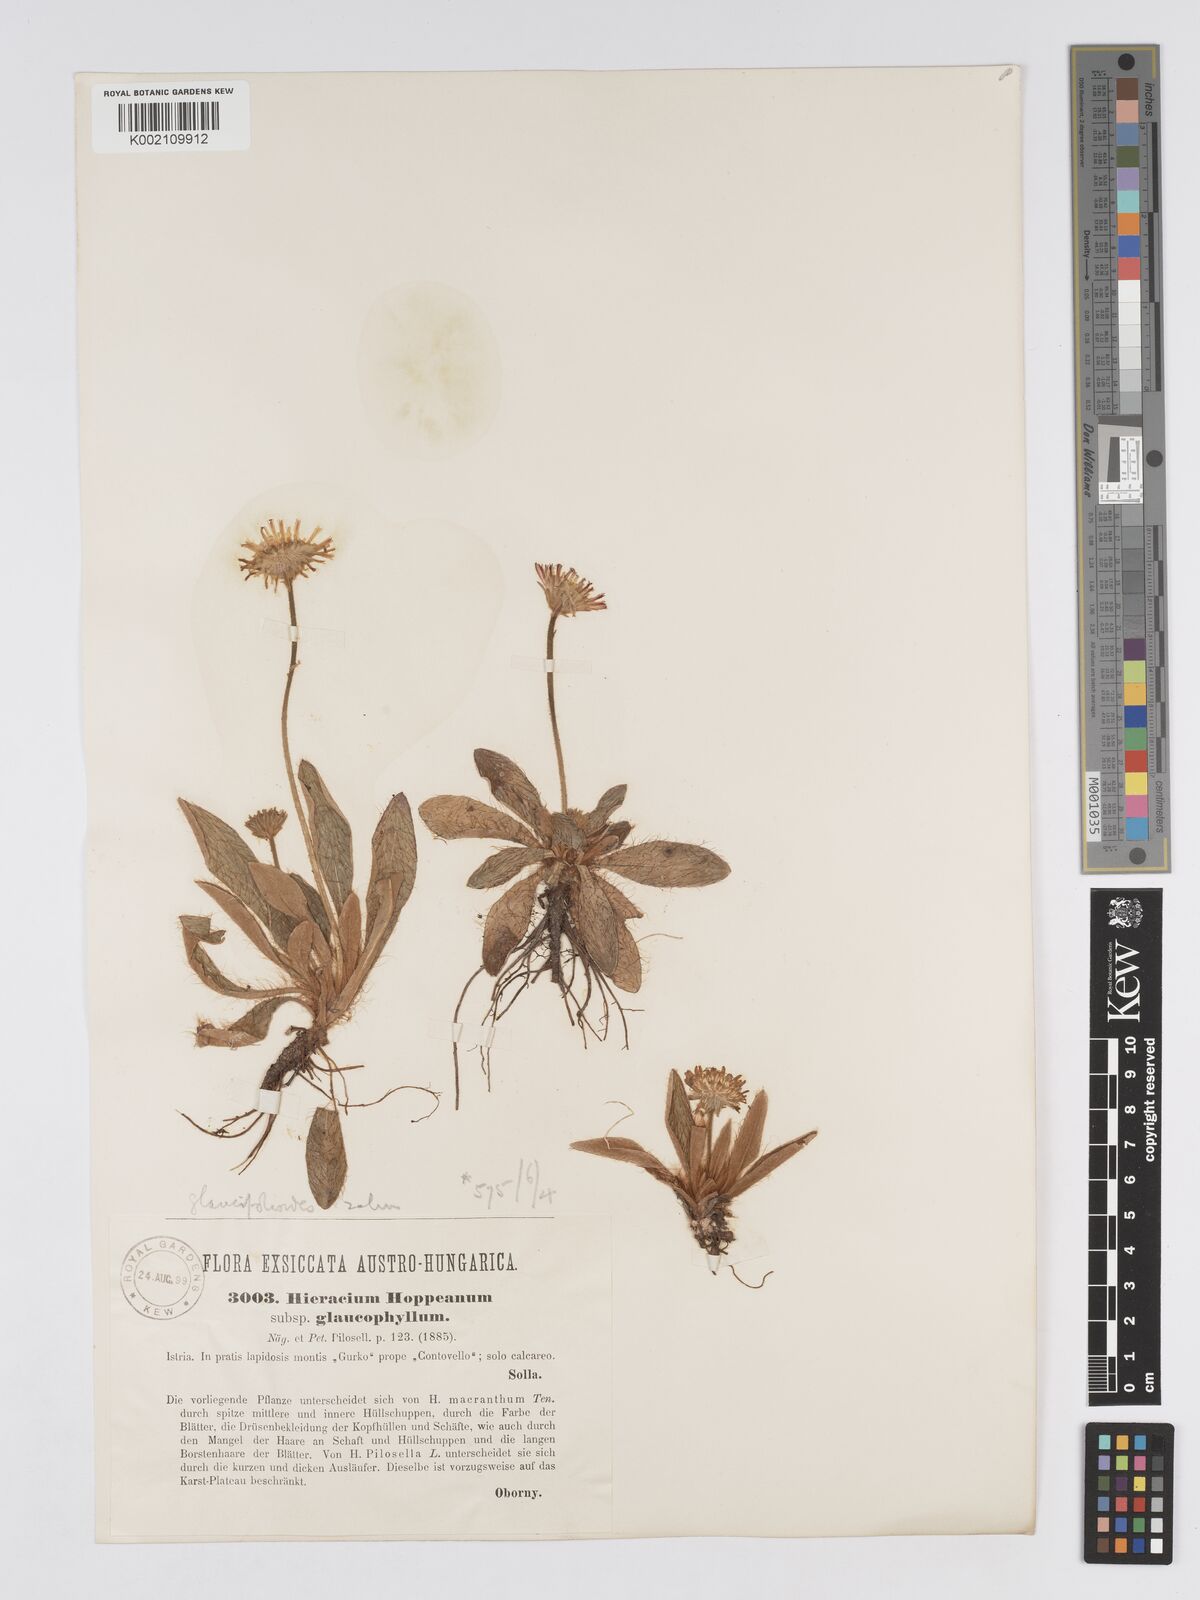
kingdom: Plantae
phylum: Tracheophyta
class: Magnoliopsida
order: Asterales
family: Asteraceae
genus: Pilosella
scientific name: Pilosella hoppeana
